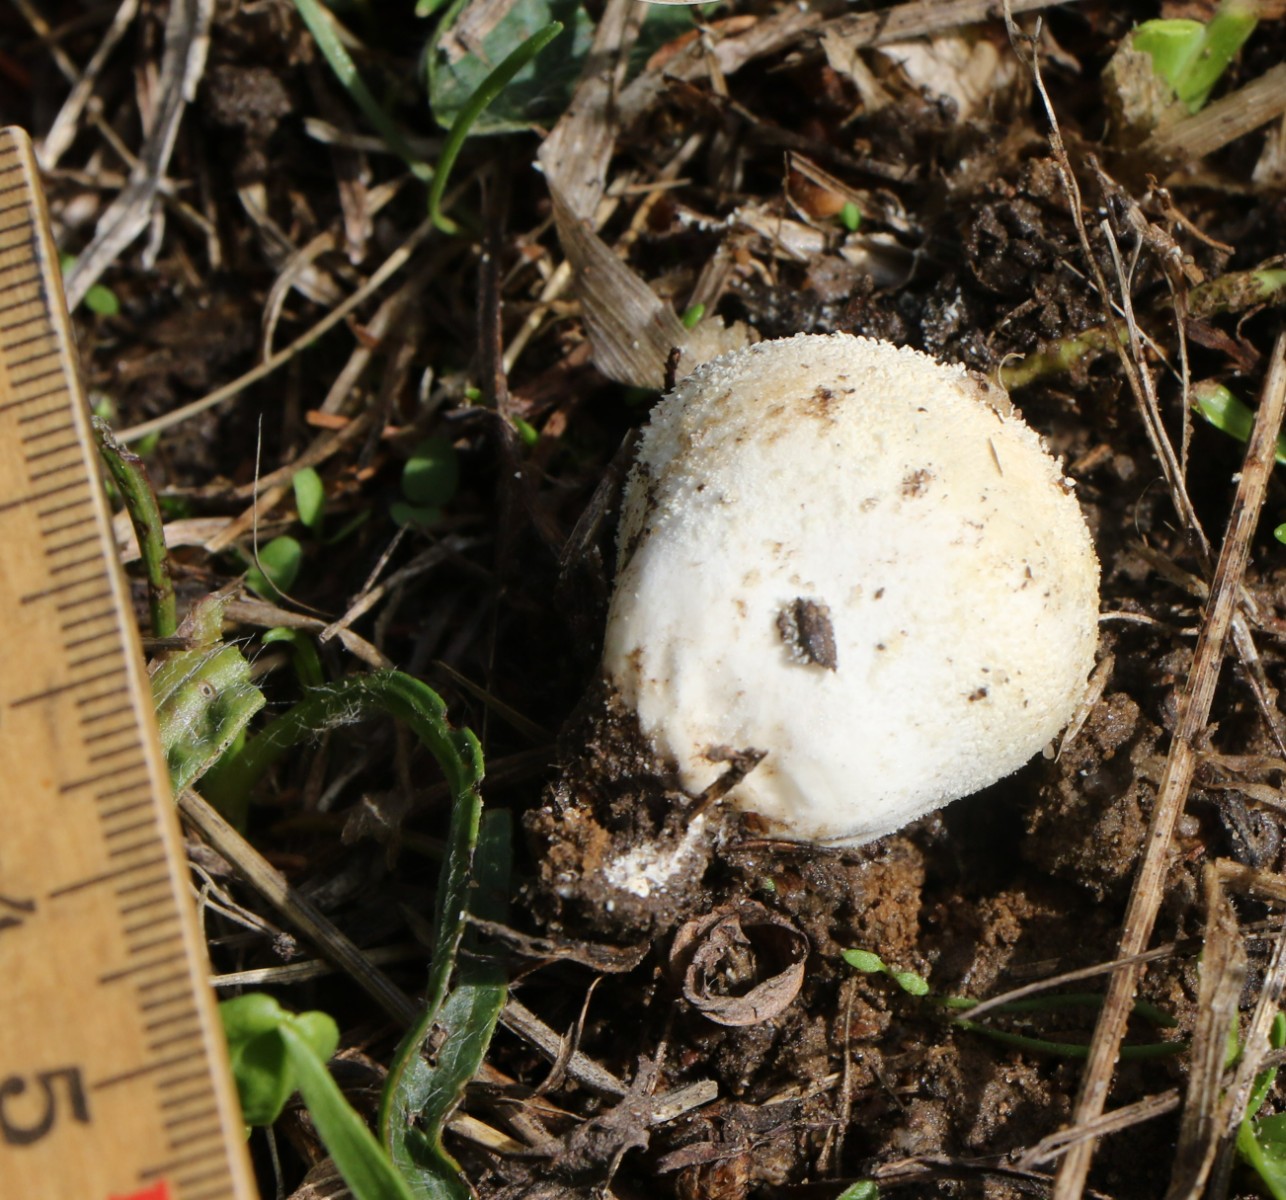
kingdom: Fungi
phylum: Basidiomycota
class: Agaricomycetes
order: Agaricales
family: Lycoperdaceae
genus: Lycoperdon
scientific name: Lycoperdon perlatum
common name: krystal-støvbold
